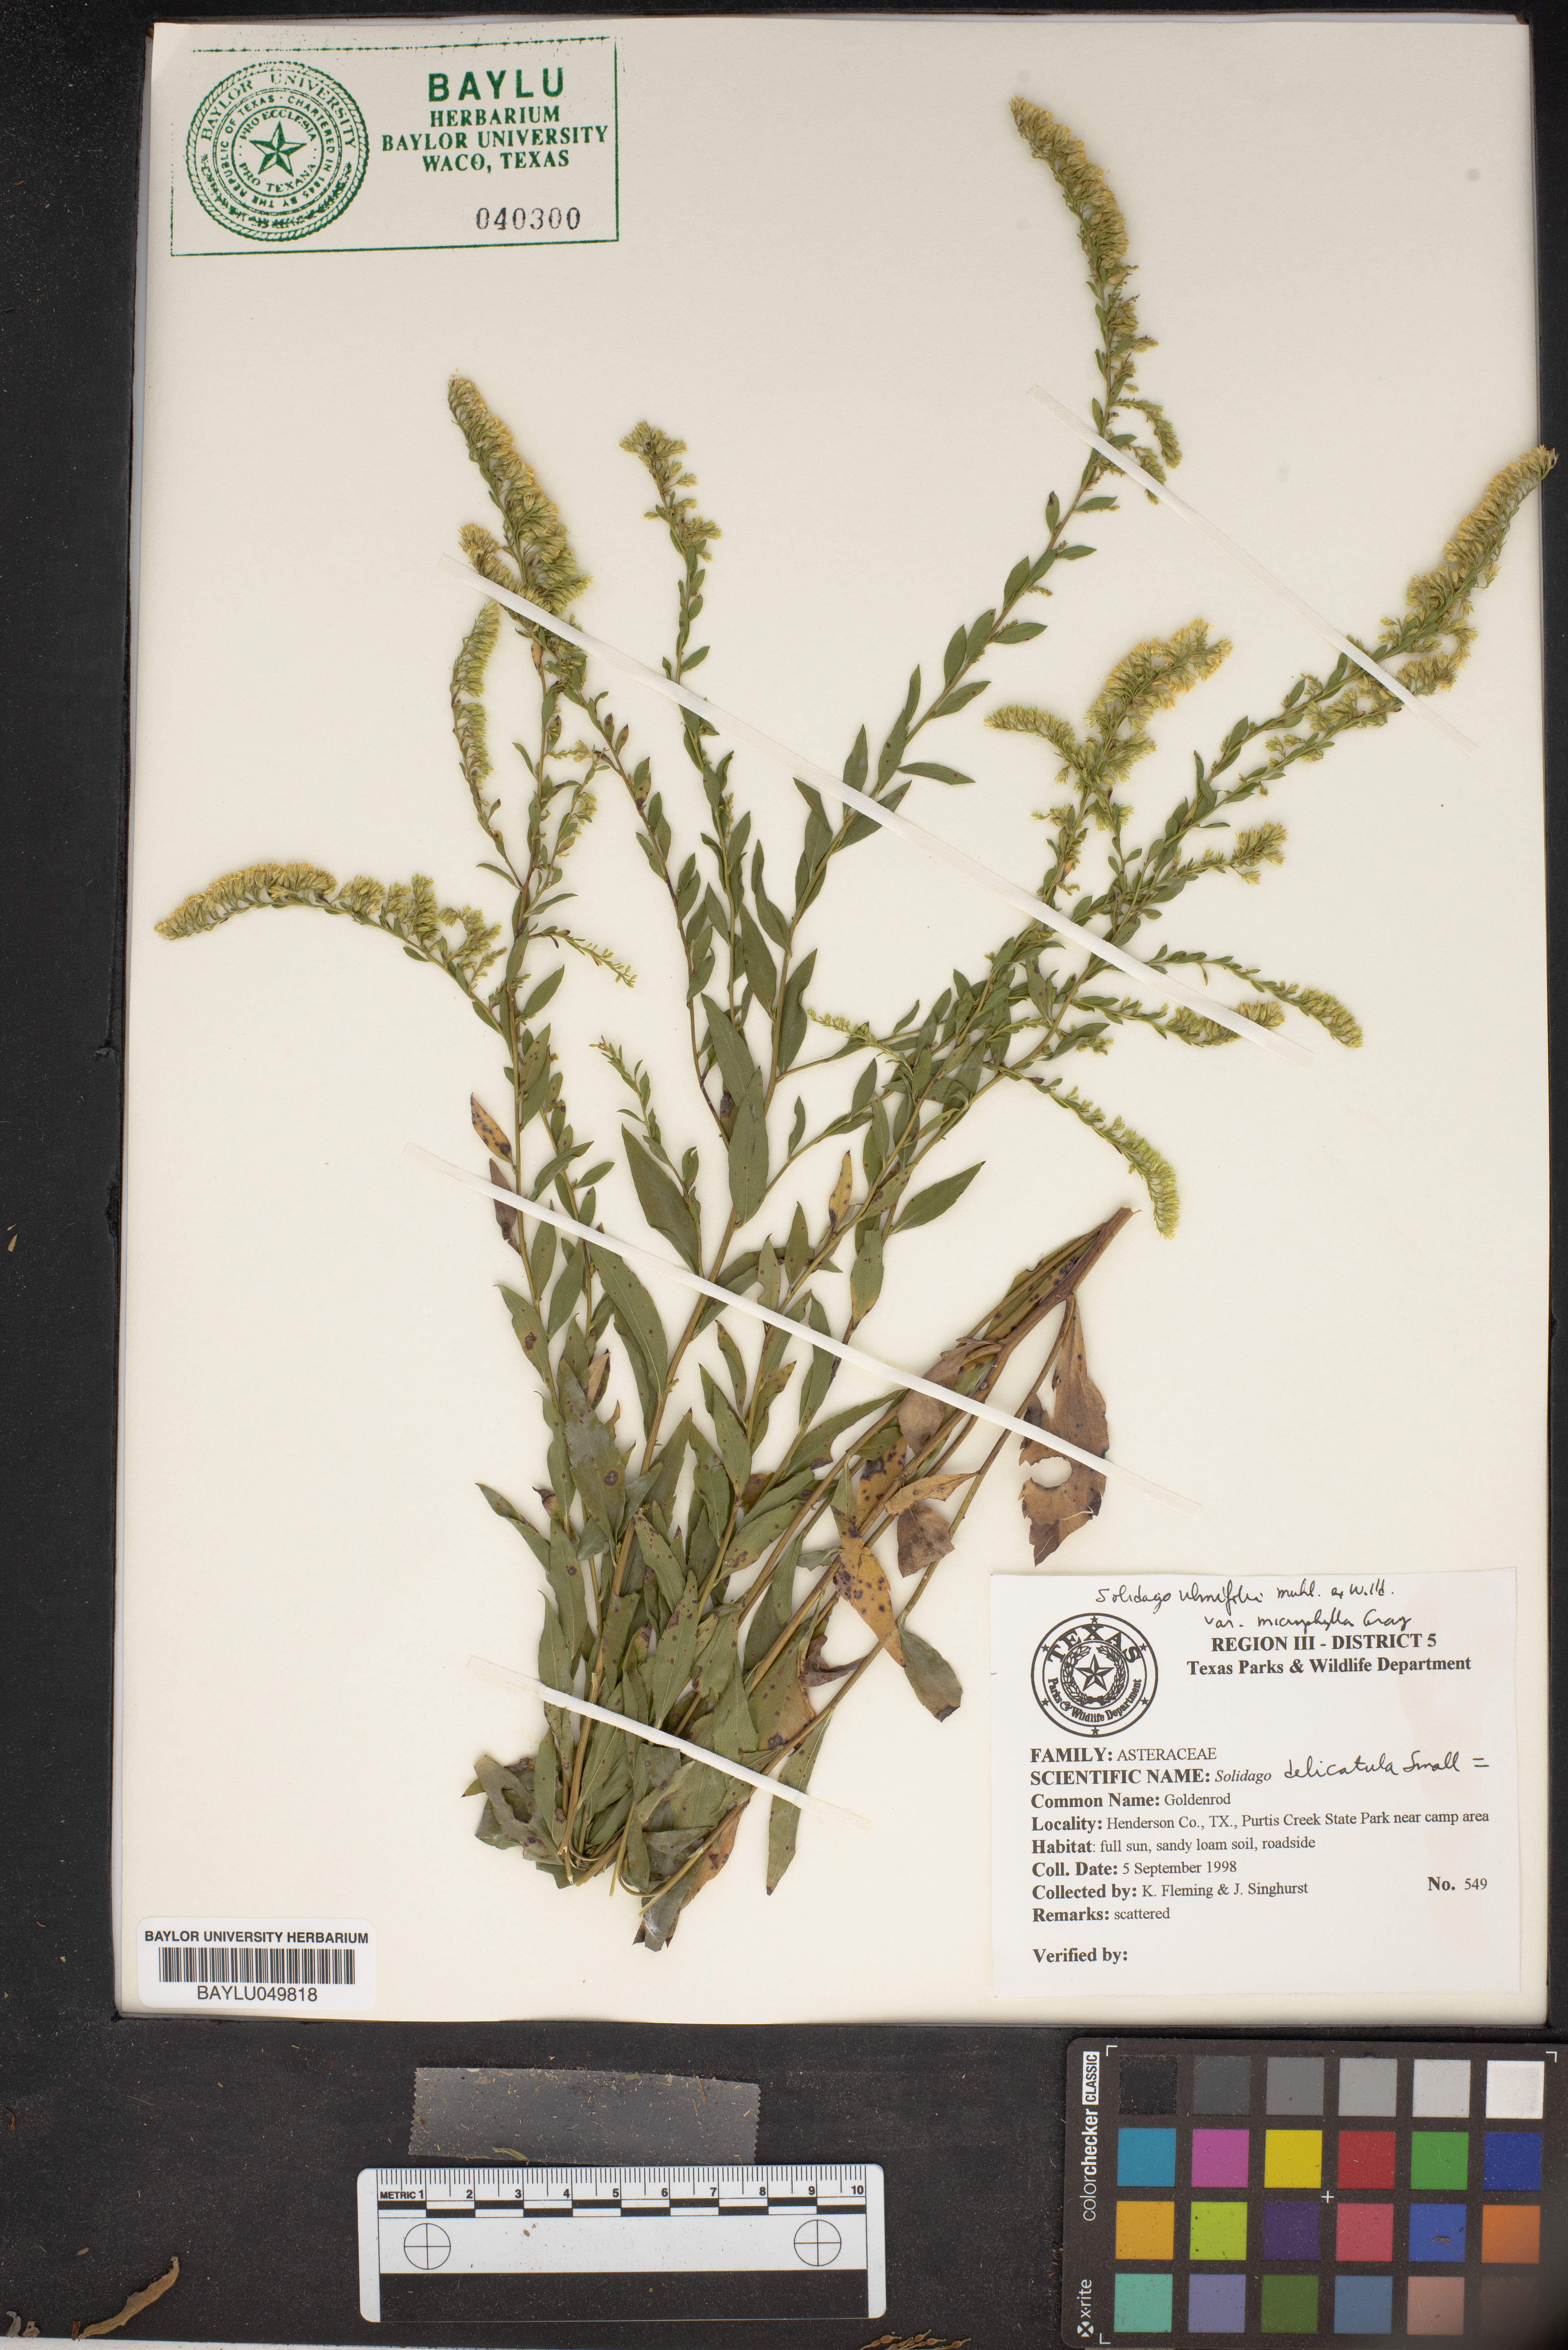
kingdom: Plantae
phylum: Tracheophyta
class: Magnoliopsida
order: Asterales
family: Asteraceae
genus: Solidago
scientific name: Solidago delicatula
